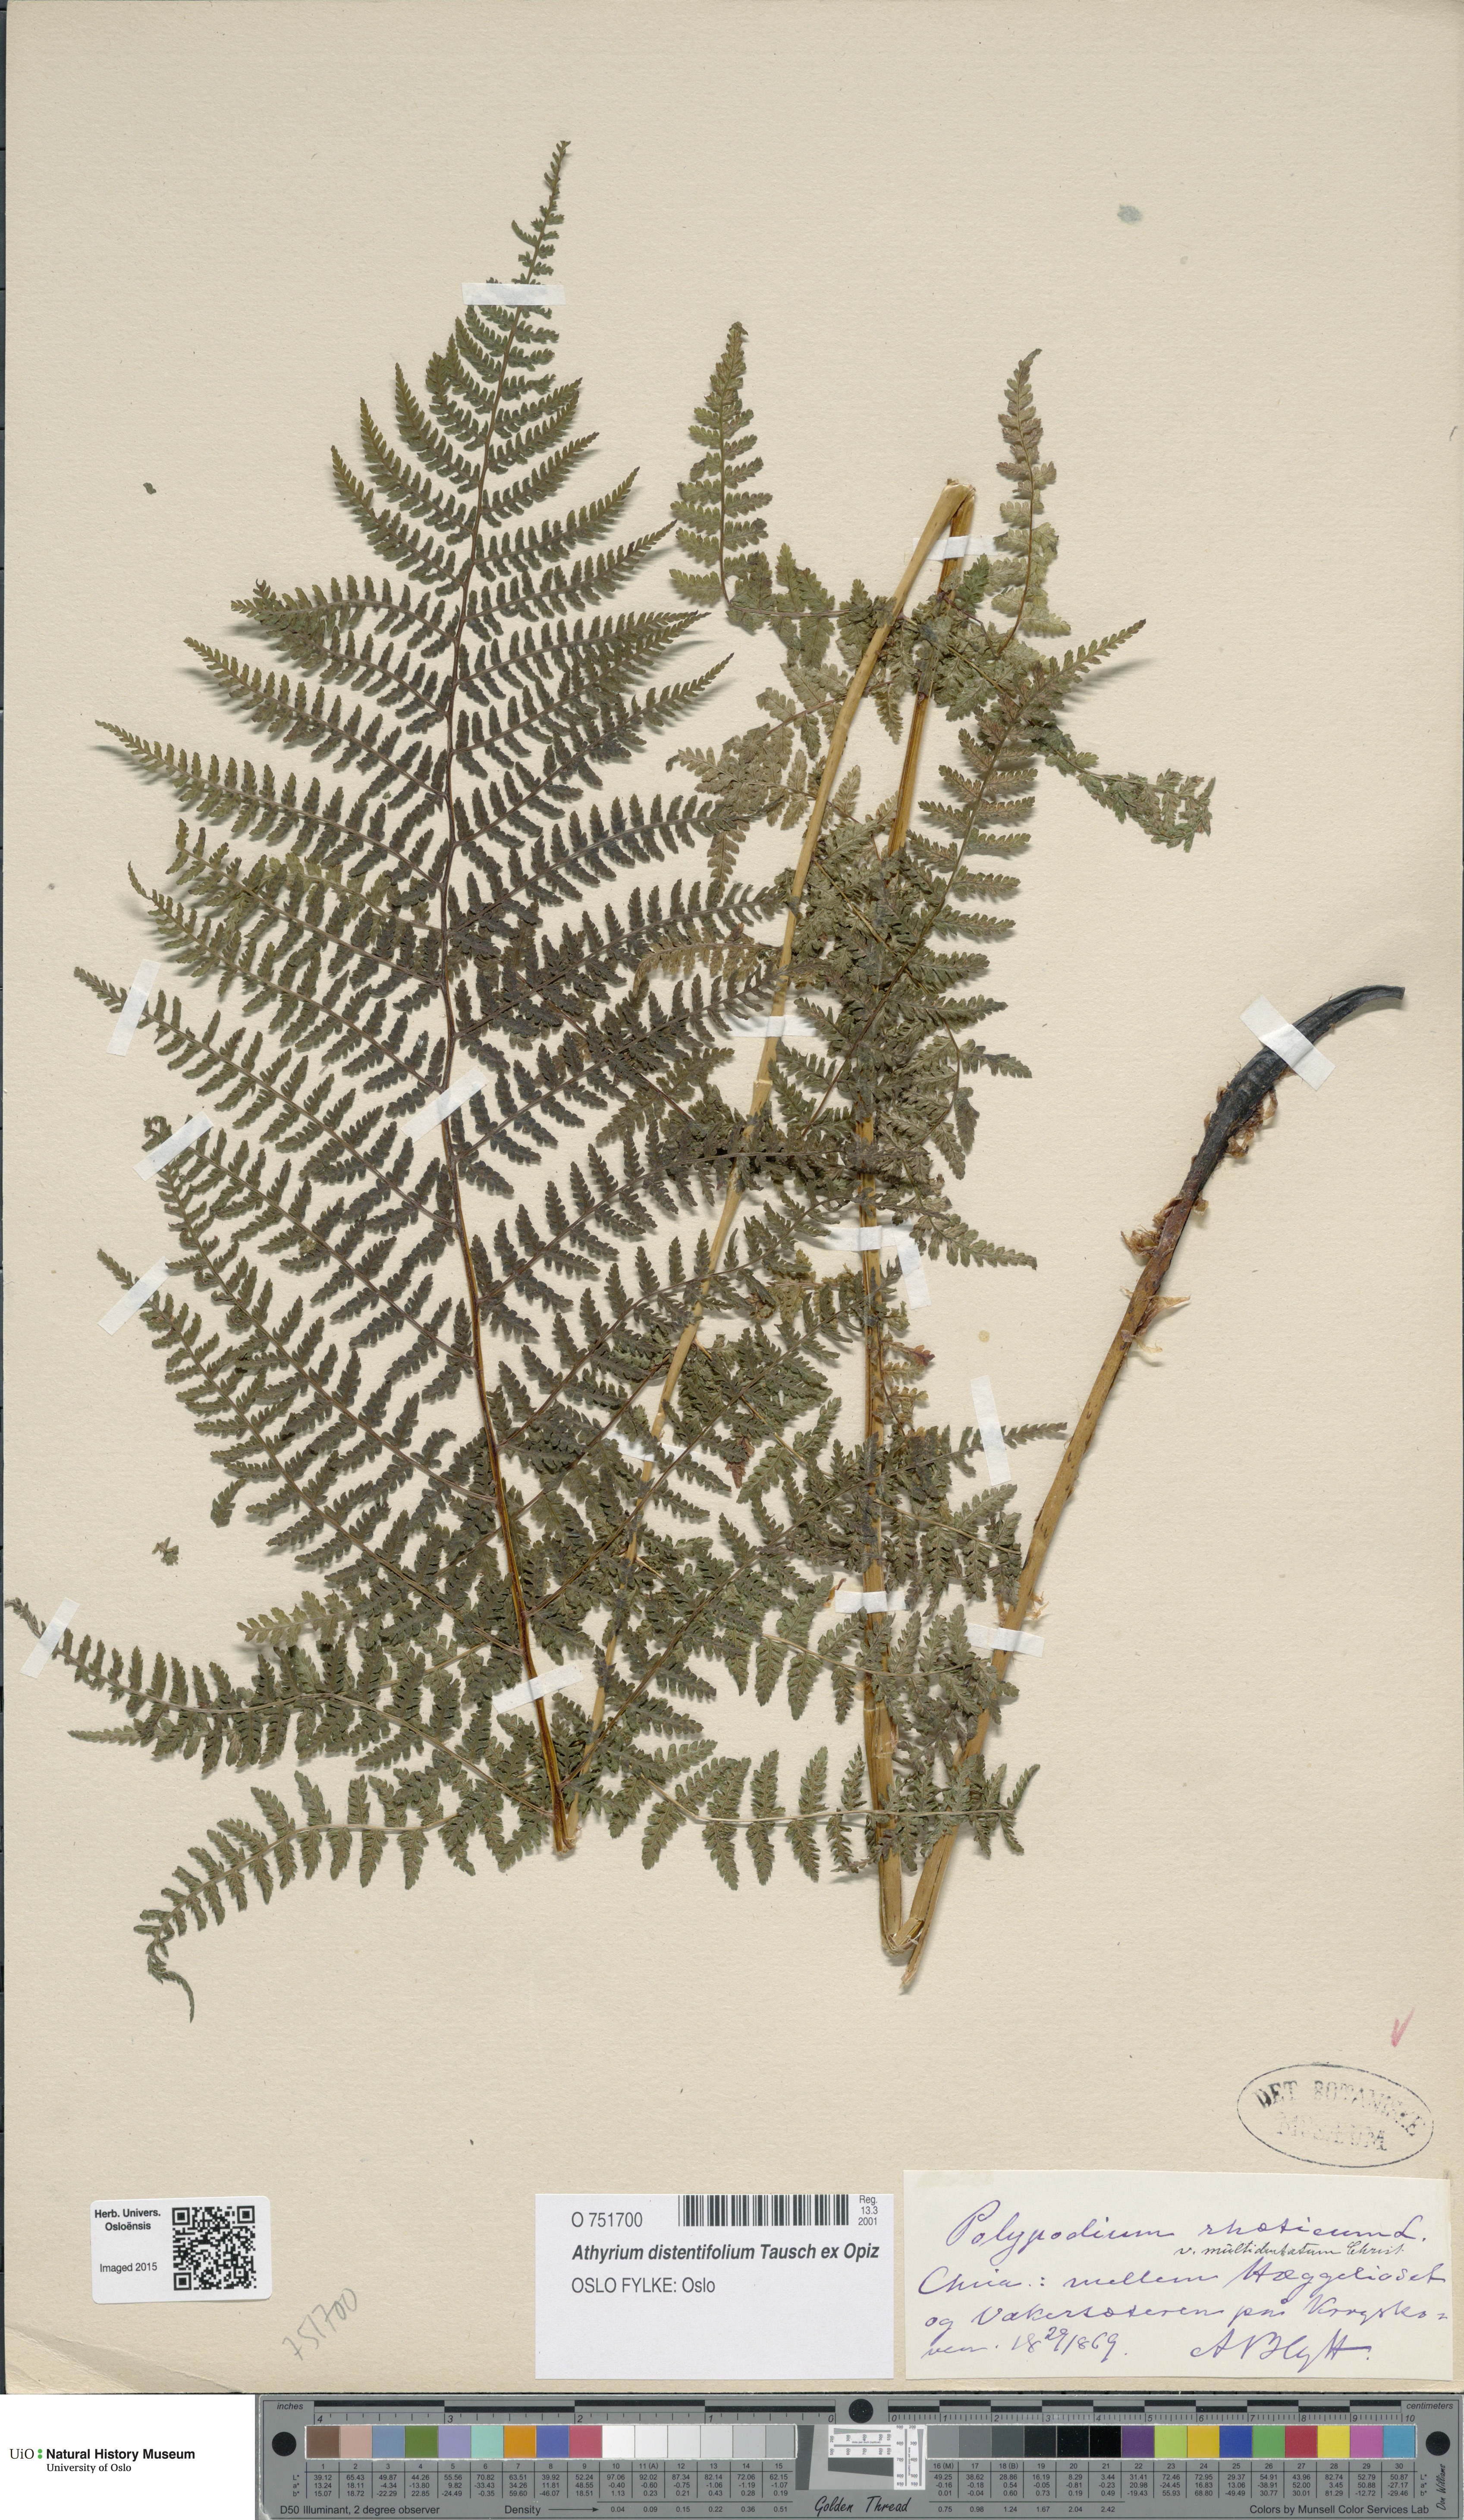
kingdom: Plantae
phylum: Tracheophyta
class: Polypodiopsida
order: Polypodiales
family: Athyriaceae
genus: Pseudathyrium
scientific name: Pseudathyrium alpestre
